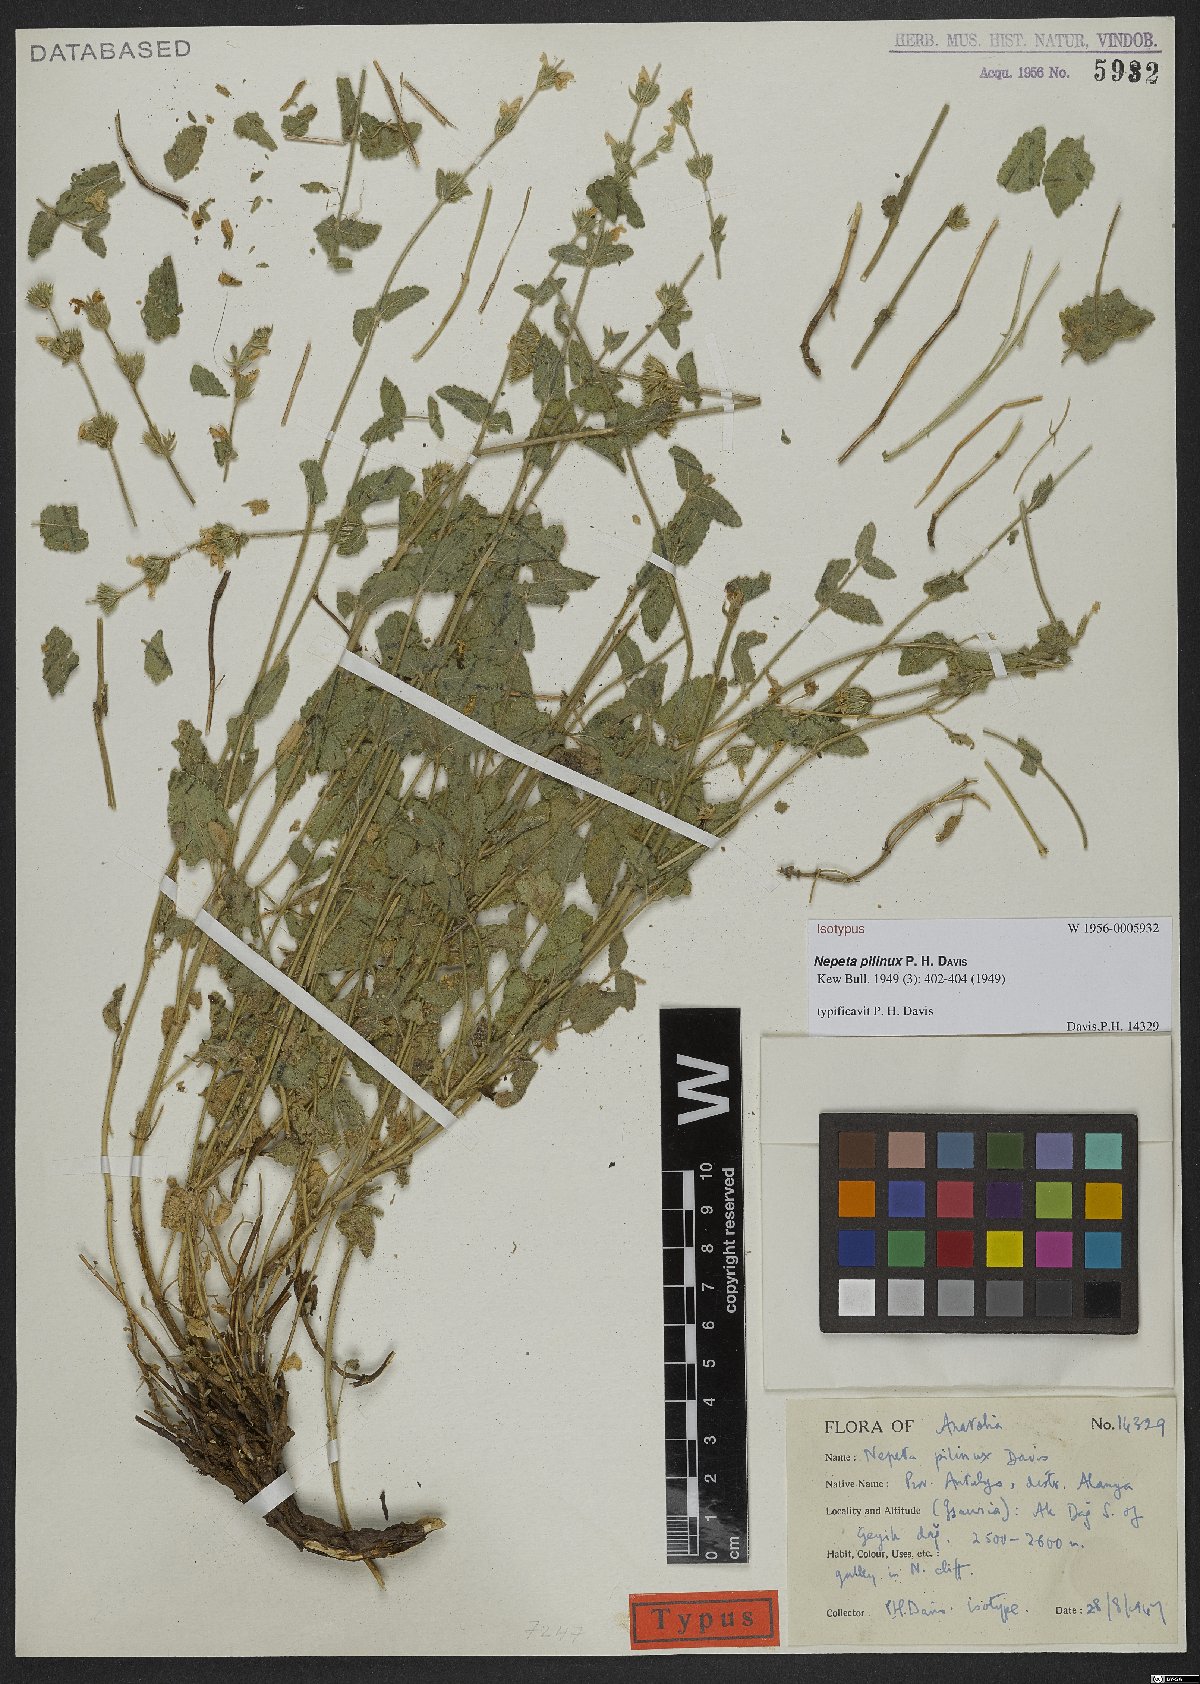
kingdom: Plantae
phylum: Tracheophyta
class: Magnoliopsida
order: Lamiales
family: Lamiaceae
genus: Nepeta
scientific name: Nepeta pilinux
